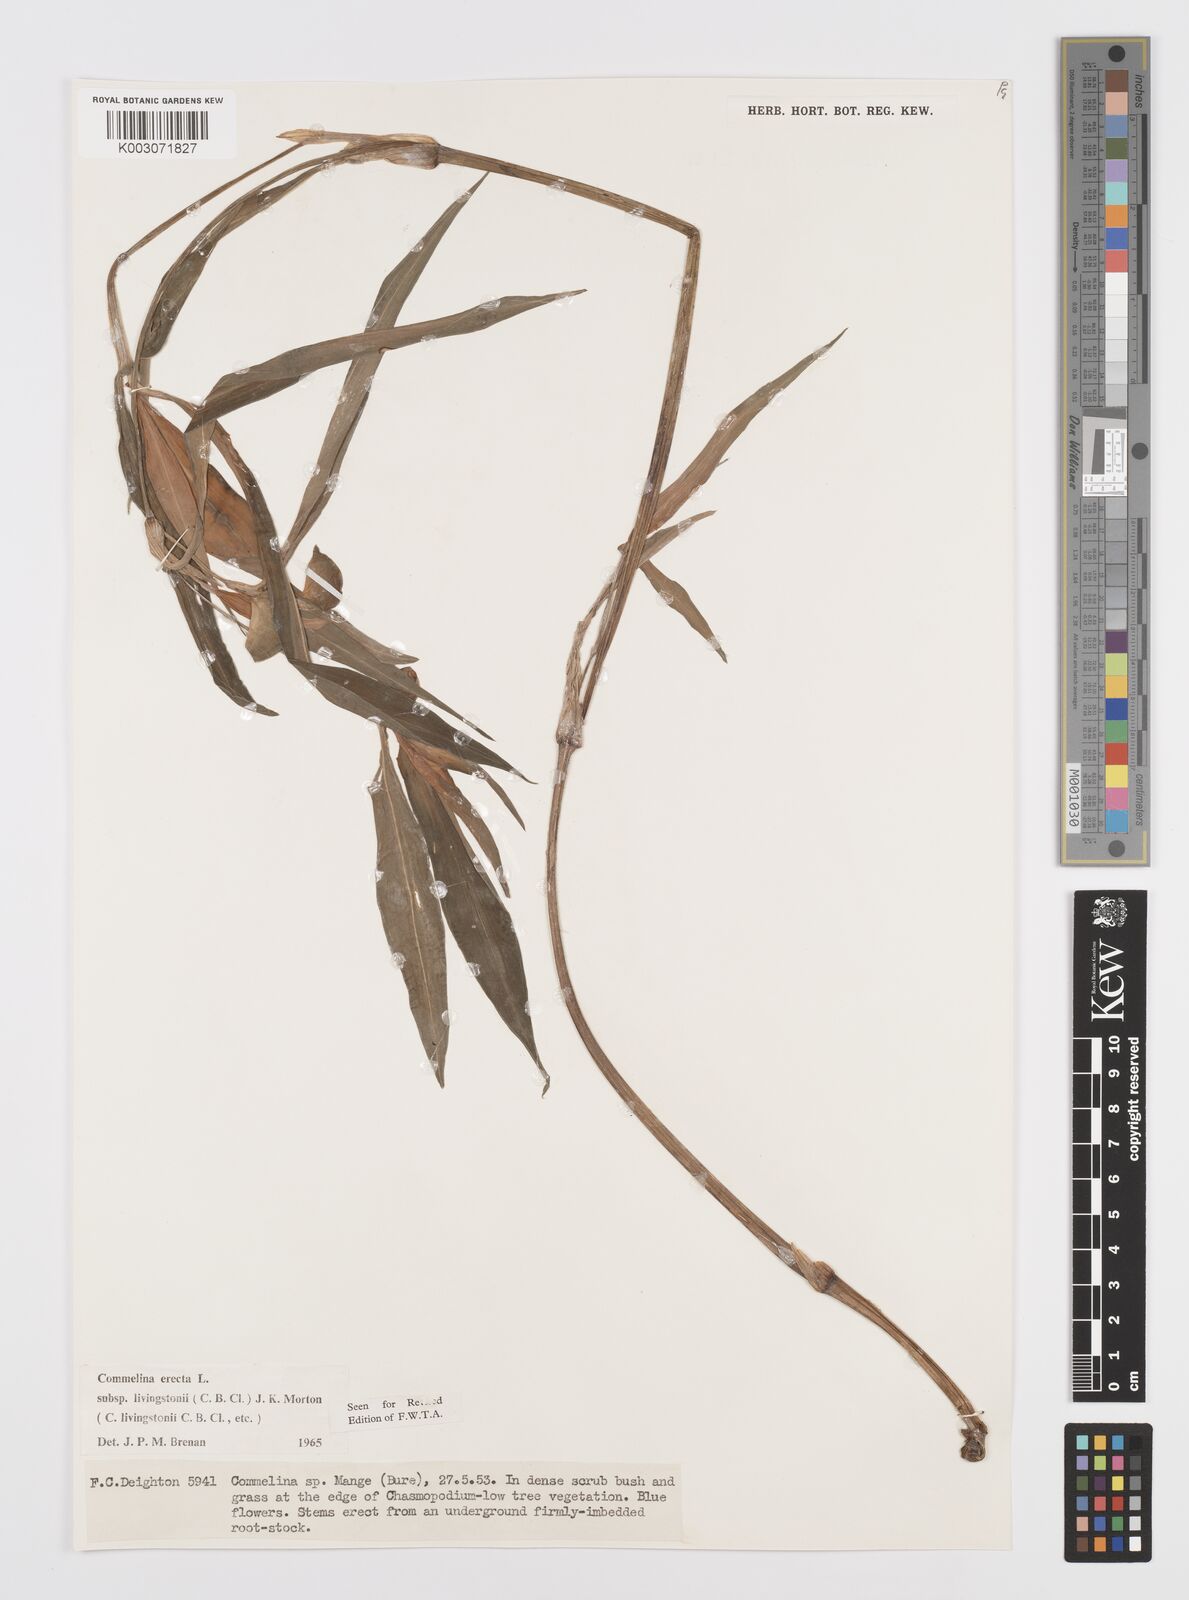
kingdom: Plantae
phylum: Tracheophyta
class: Liliopsida
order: Commelinales
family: Commelinaceae
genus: Commelina
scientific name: Commelina erecta
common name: Blousel blommetjie
